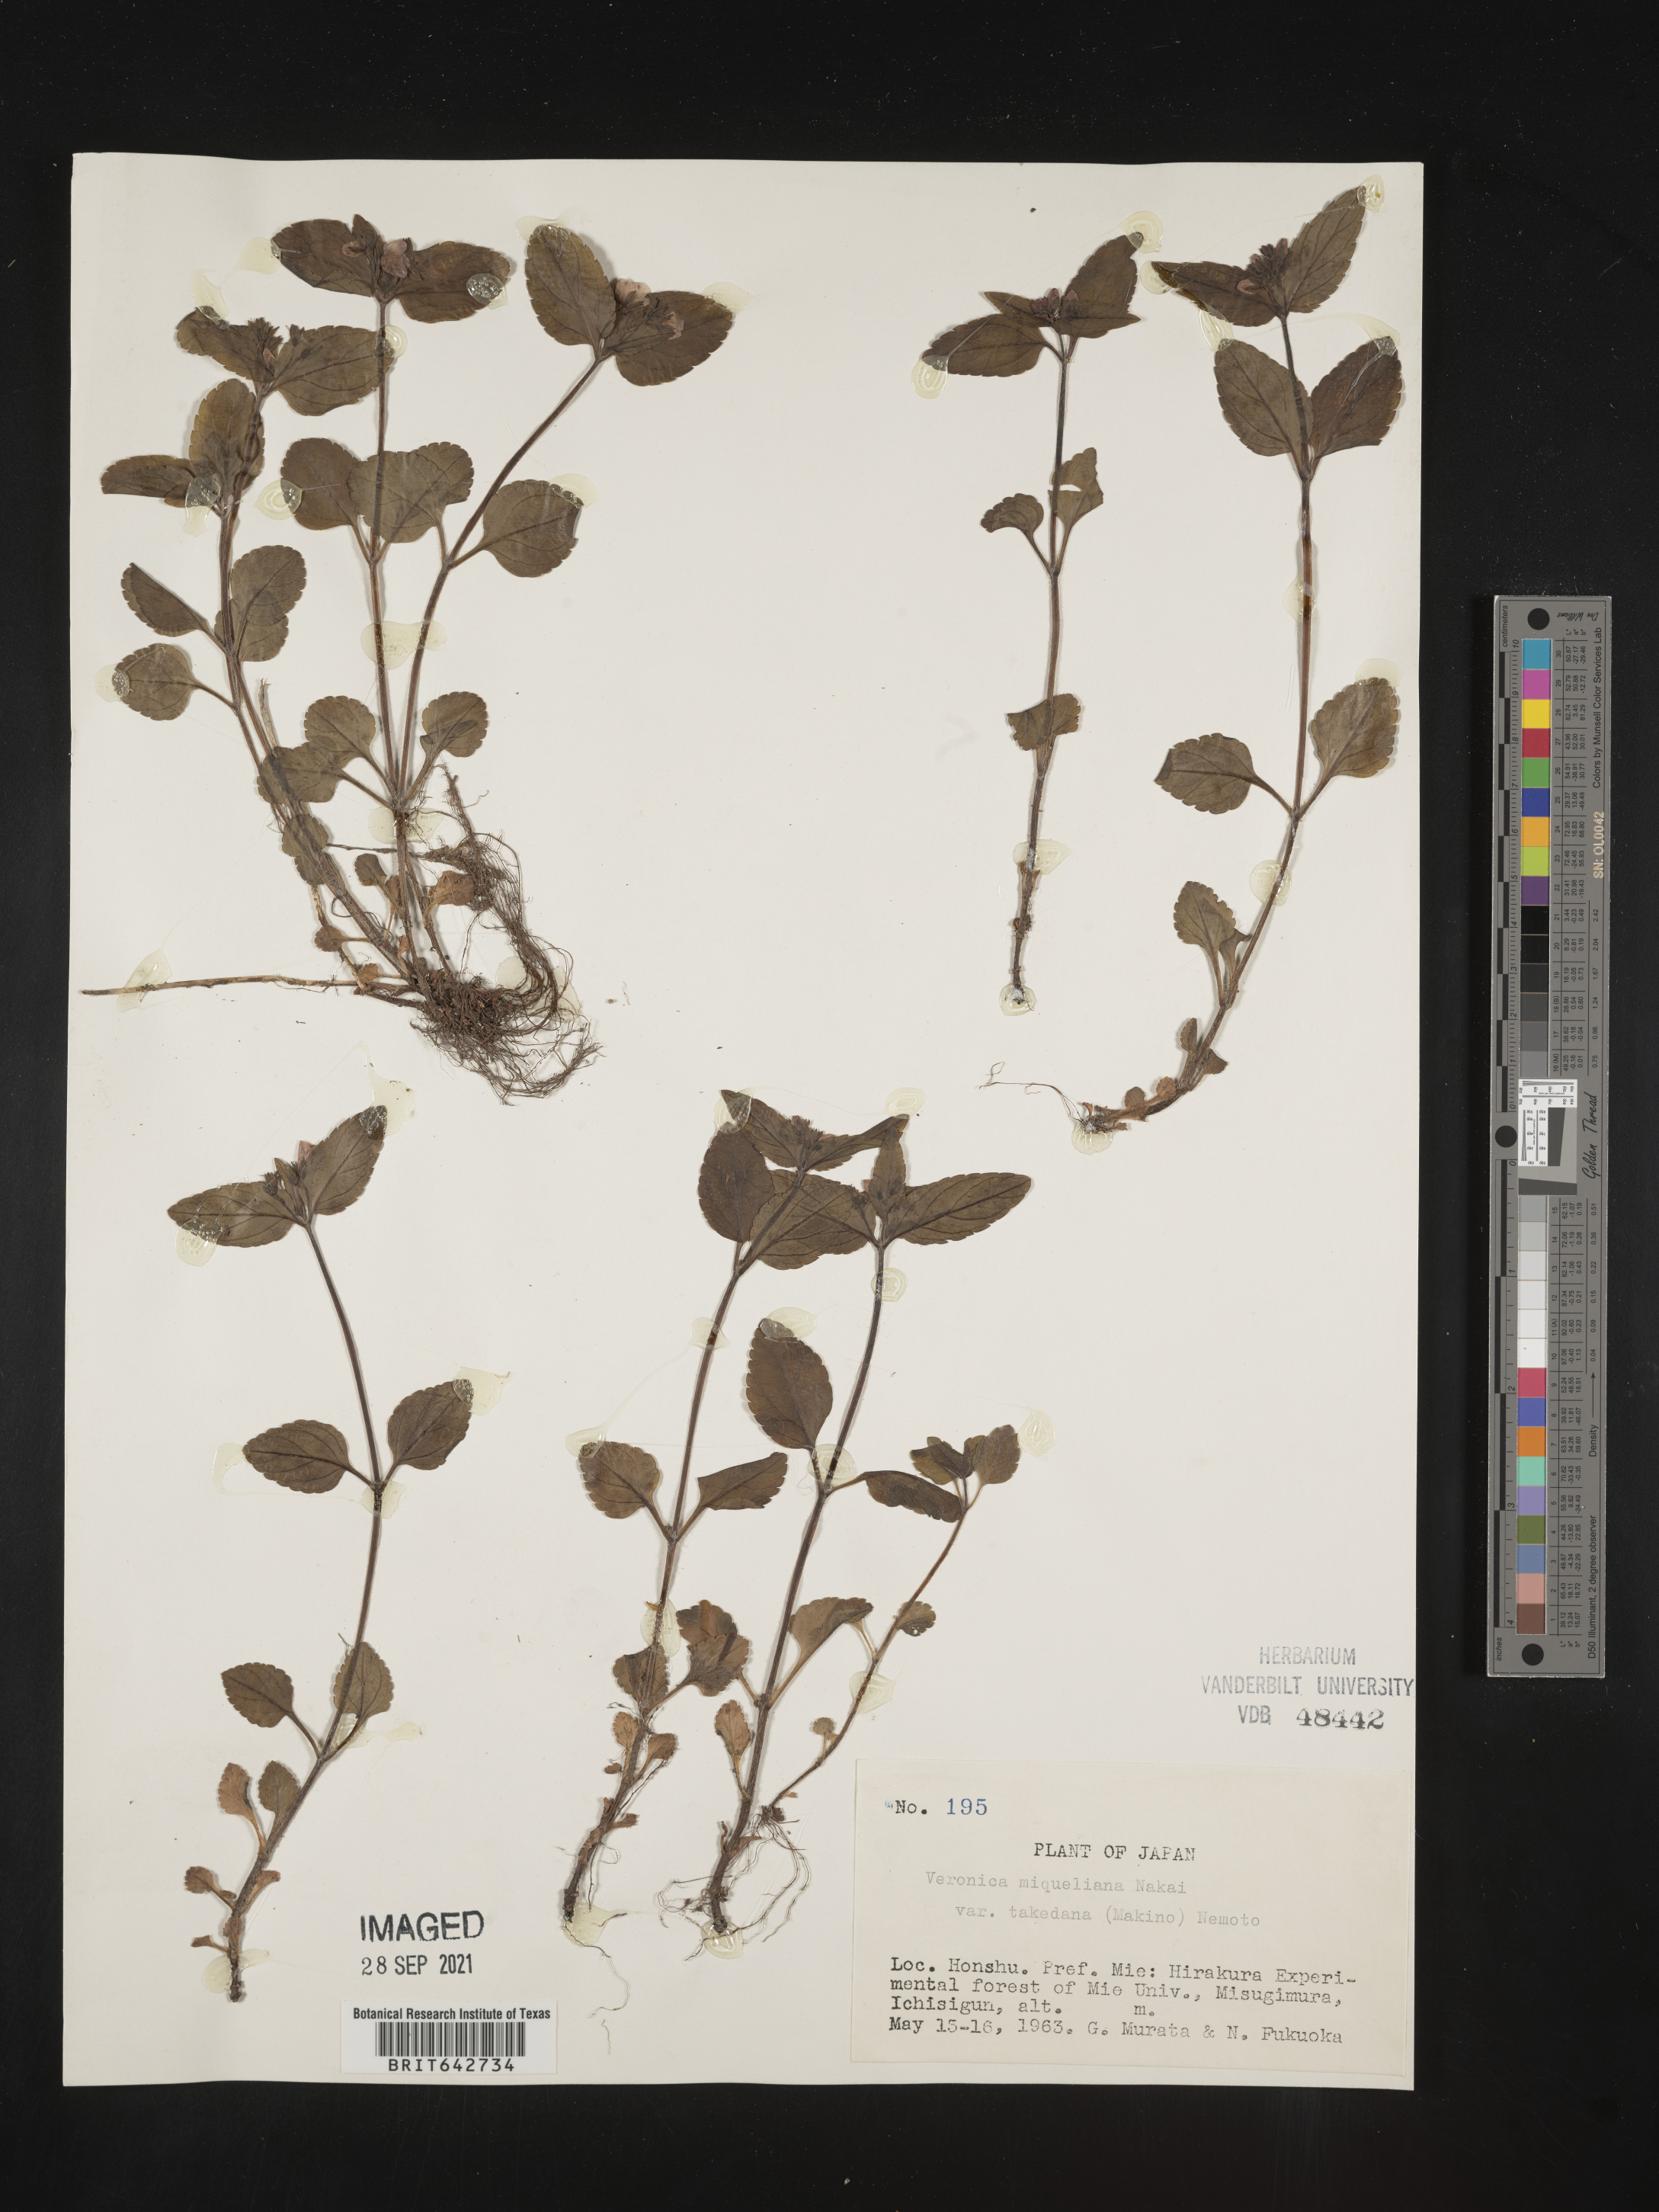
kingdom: Plantae
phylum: Tracheophyta
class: Magnoliopsida
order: Lamiales
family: Plantaginaceae
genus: Veronica
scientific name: Veronica
